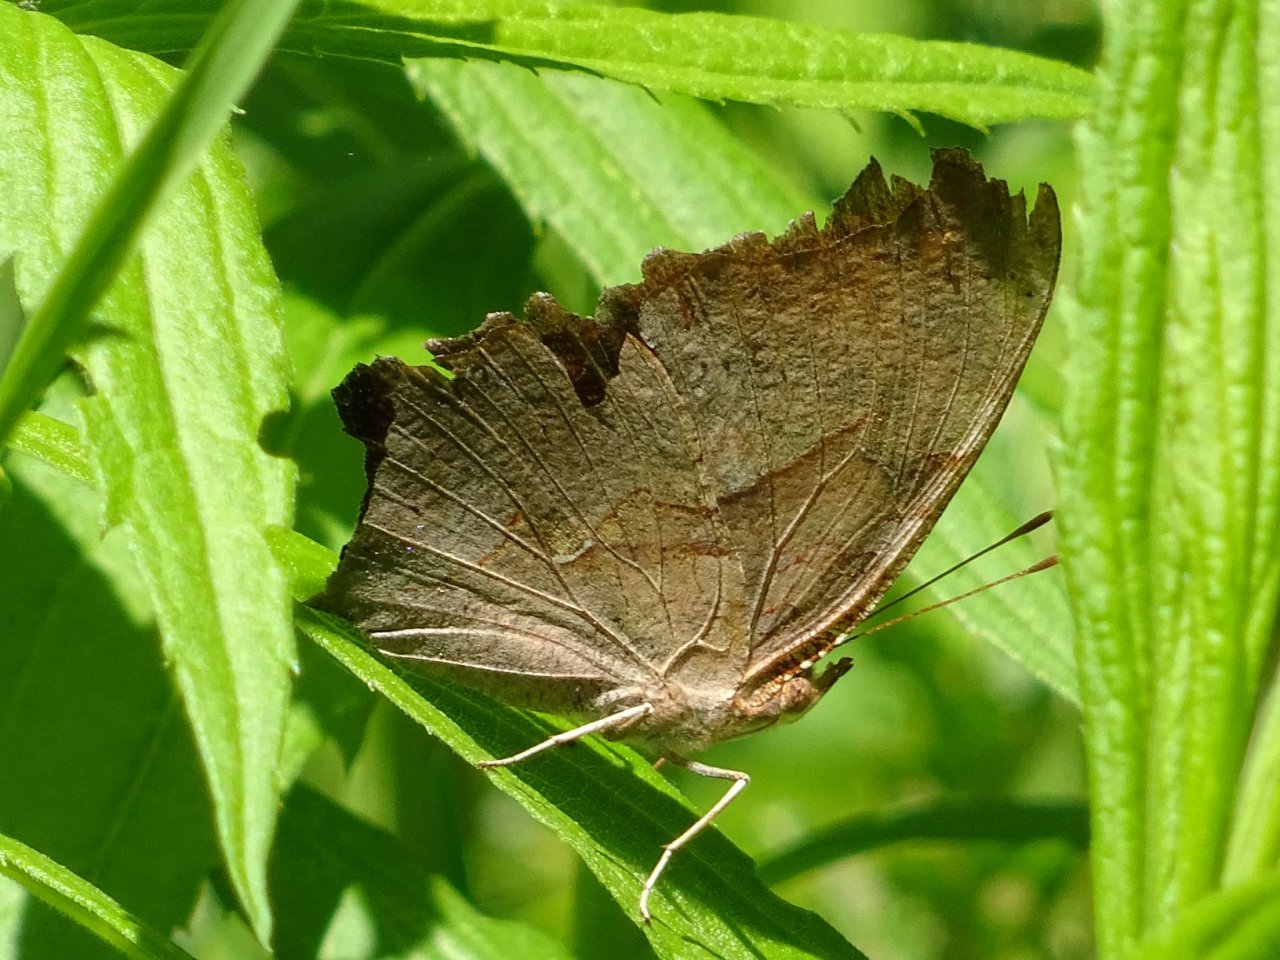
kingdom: Animalia
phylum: Arthropoda
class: Insecta
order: Lepidoptera
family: Nymphalidae
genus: Polygonia
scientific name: Polygonia interrogationis
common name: Question Mark
